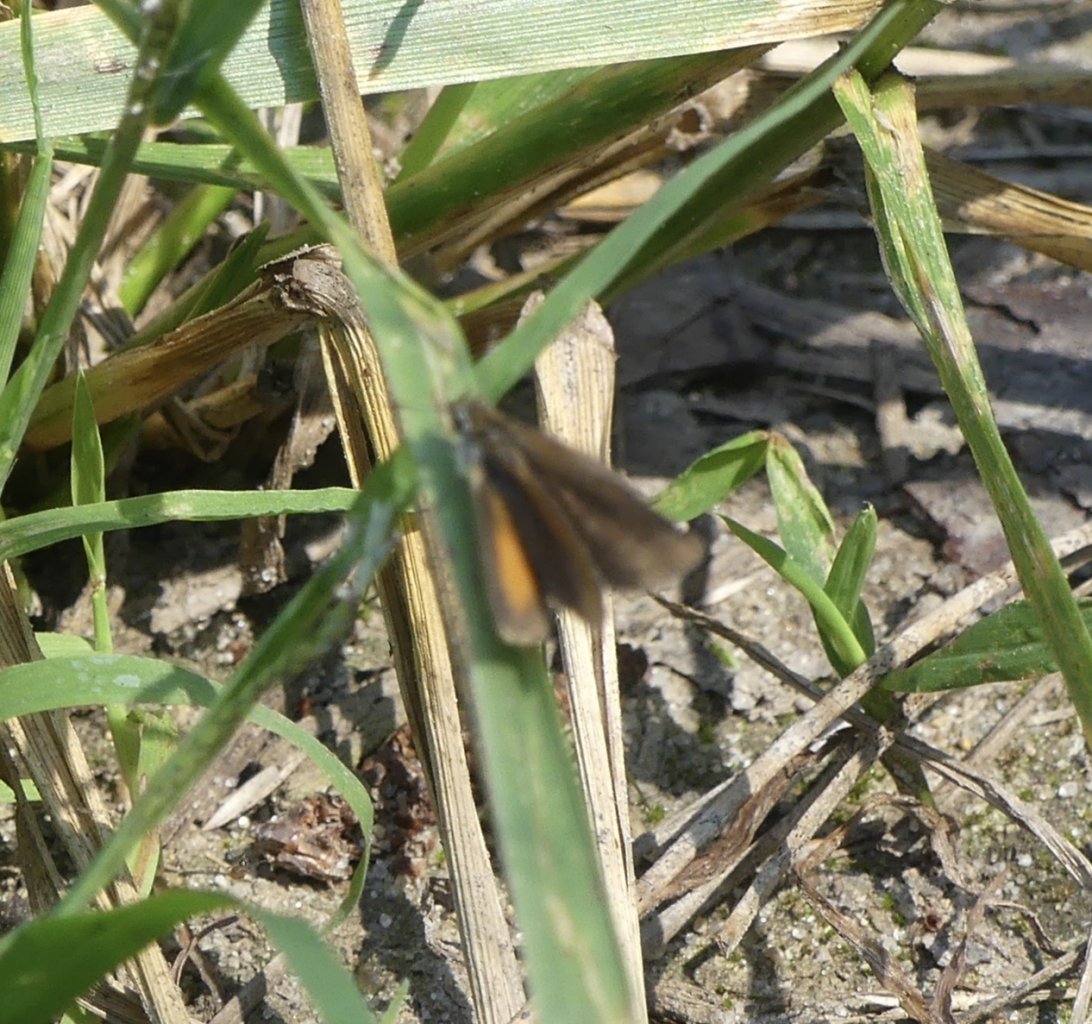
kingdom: Animalia
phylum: Arthropoda
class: Insecta
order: Lepidoptera
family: Hesperiidae
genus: Ancyloxypha
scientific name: Ancyloxypha numitor
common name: Least Skipper
